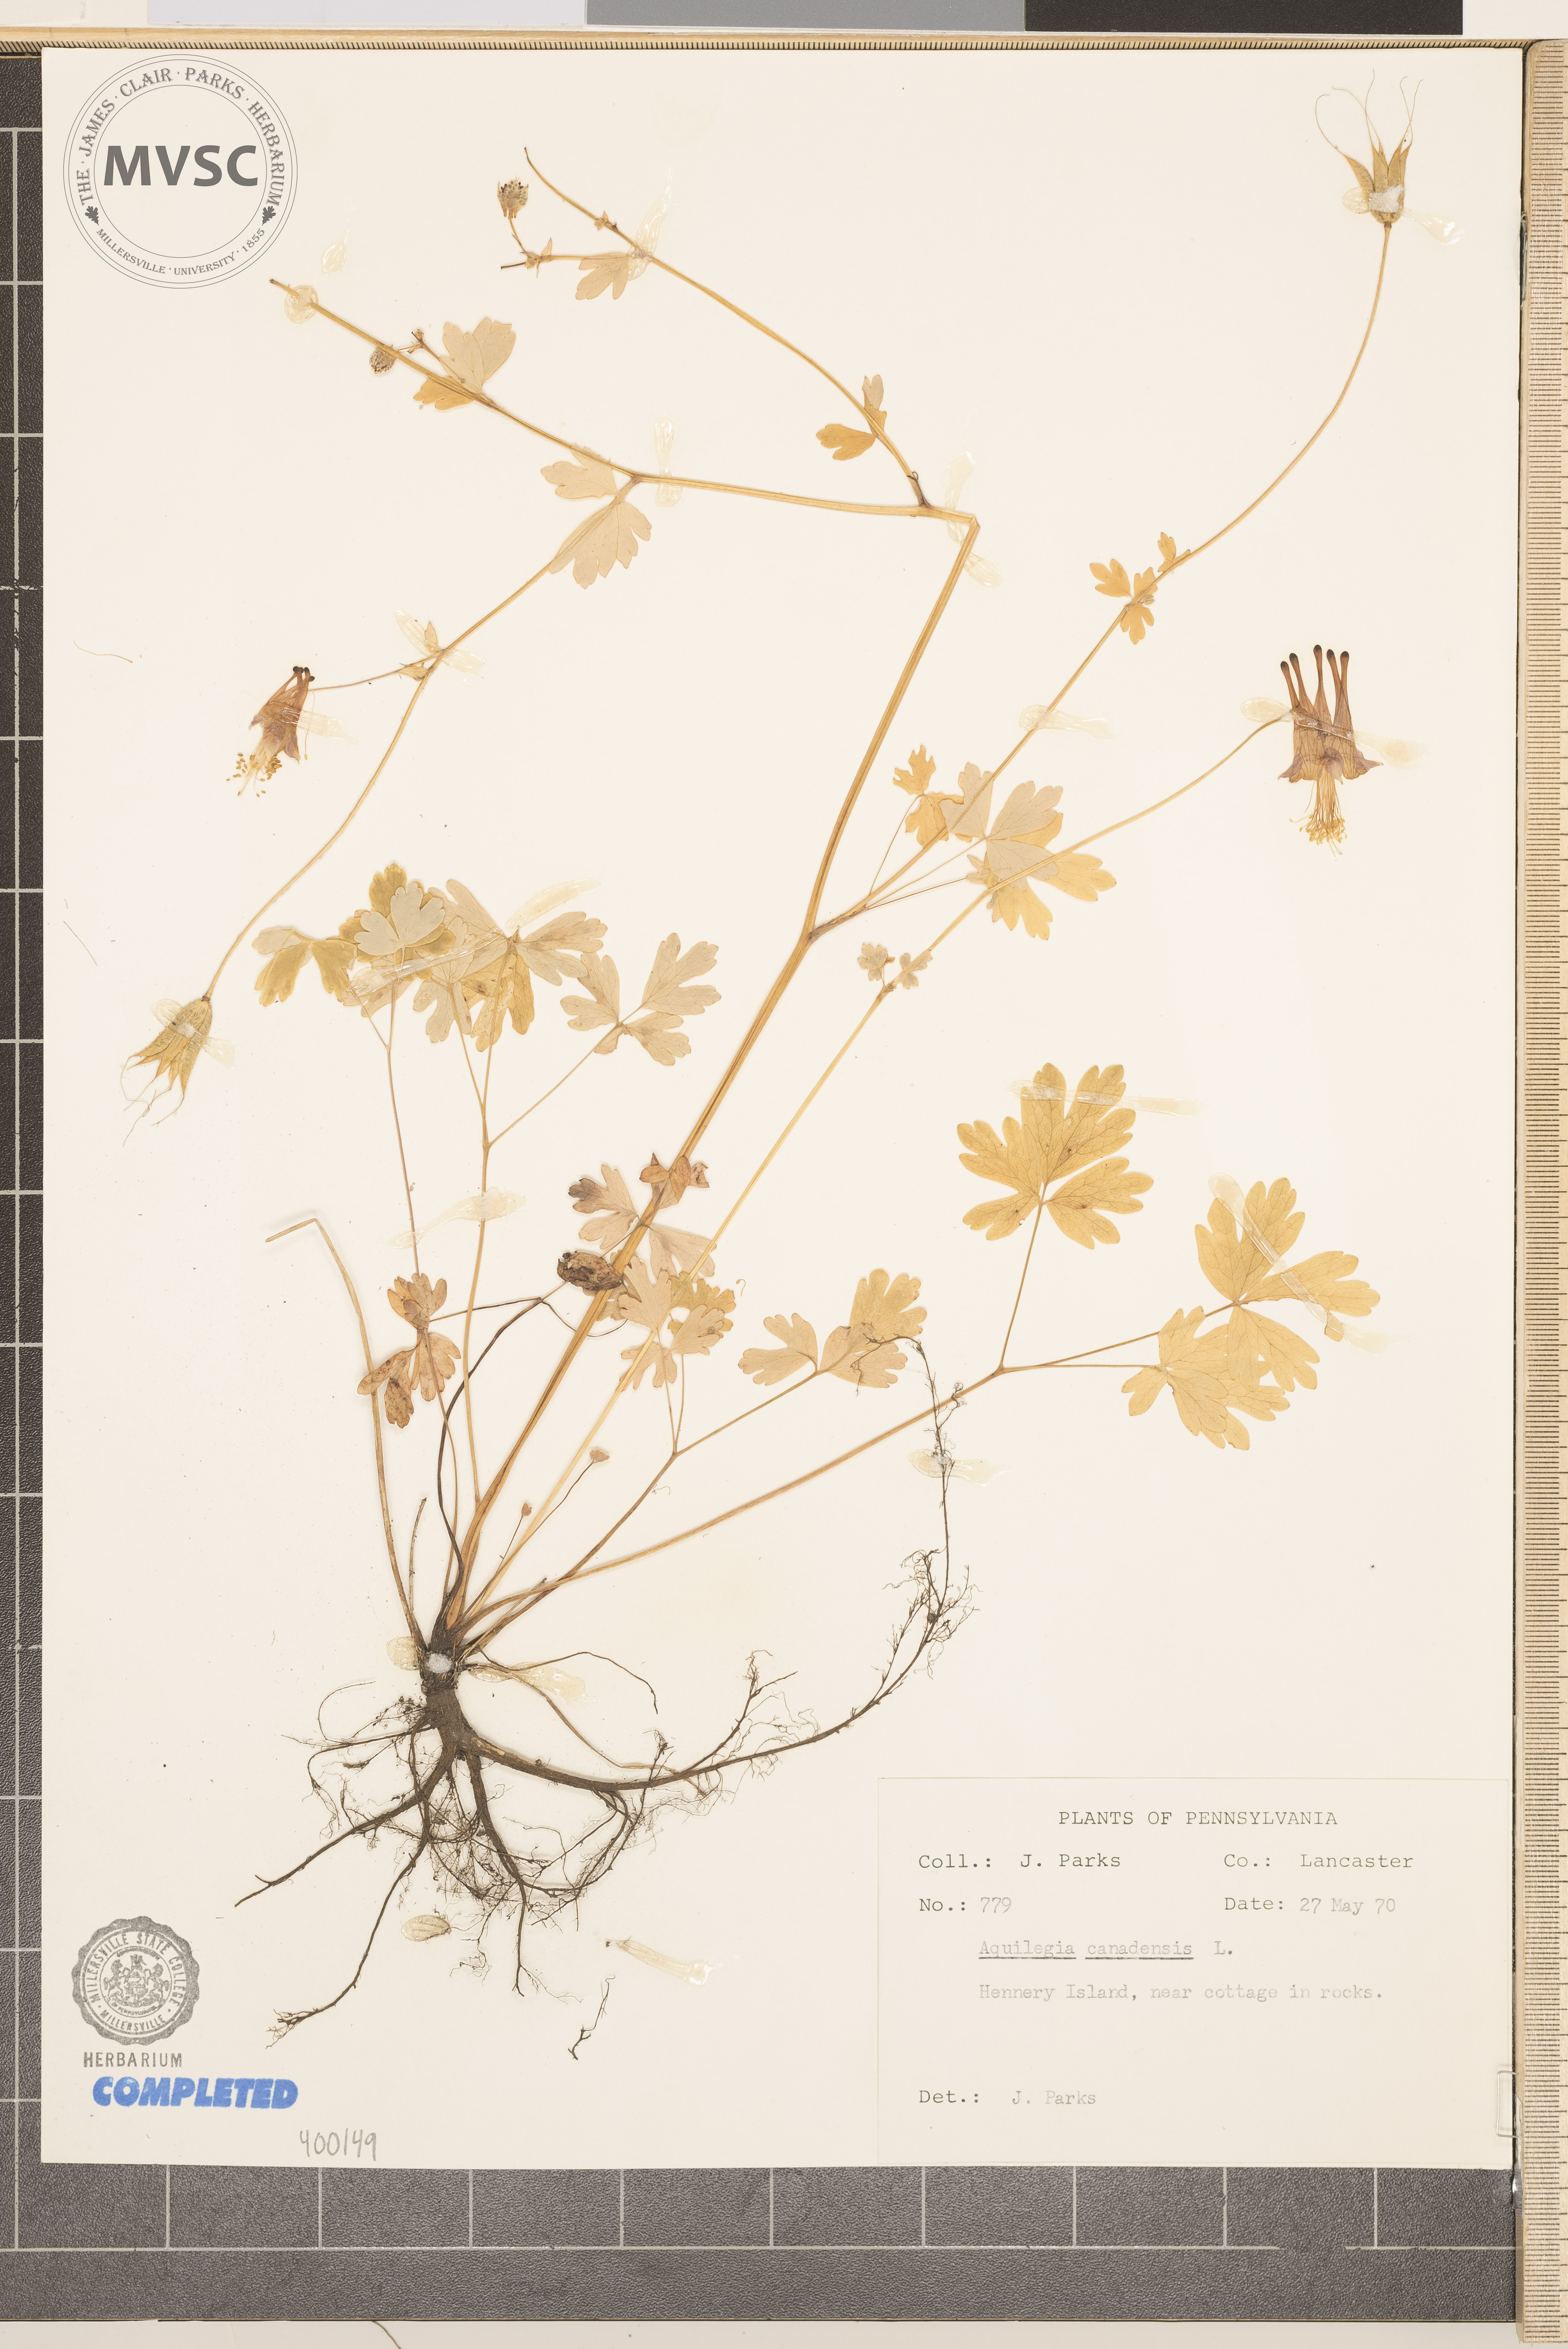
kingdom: Plantae
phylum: Tracheophyta
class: Magnoliopsida
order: Ranunculales
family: Ranunculaceae
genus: Aquilegia
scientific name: Aquilegia canadensis
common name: columbine
